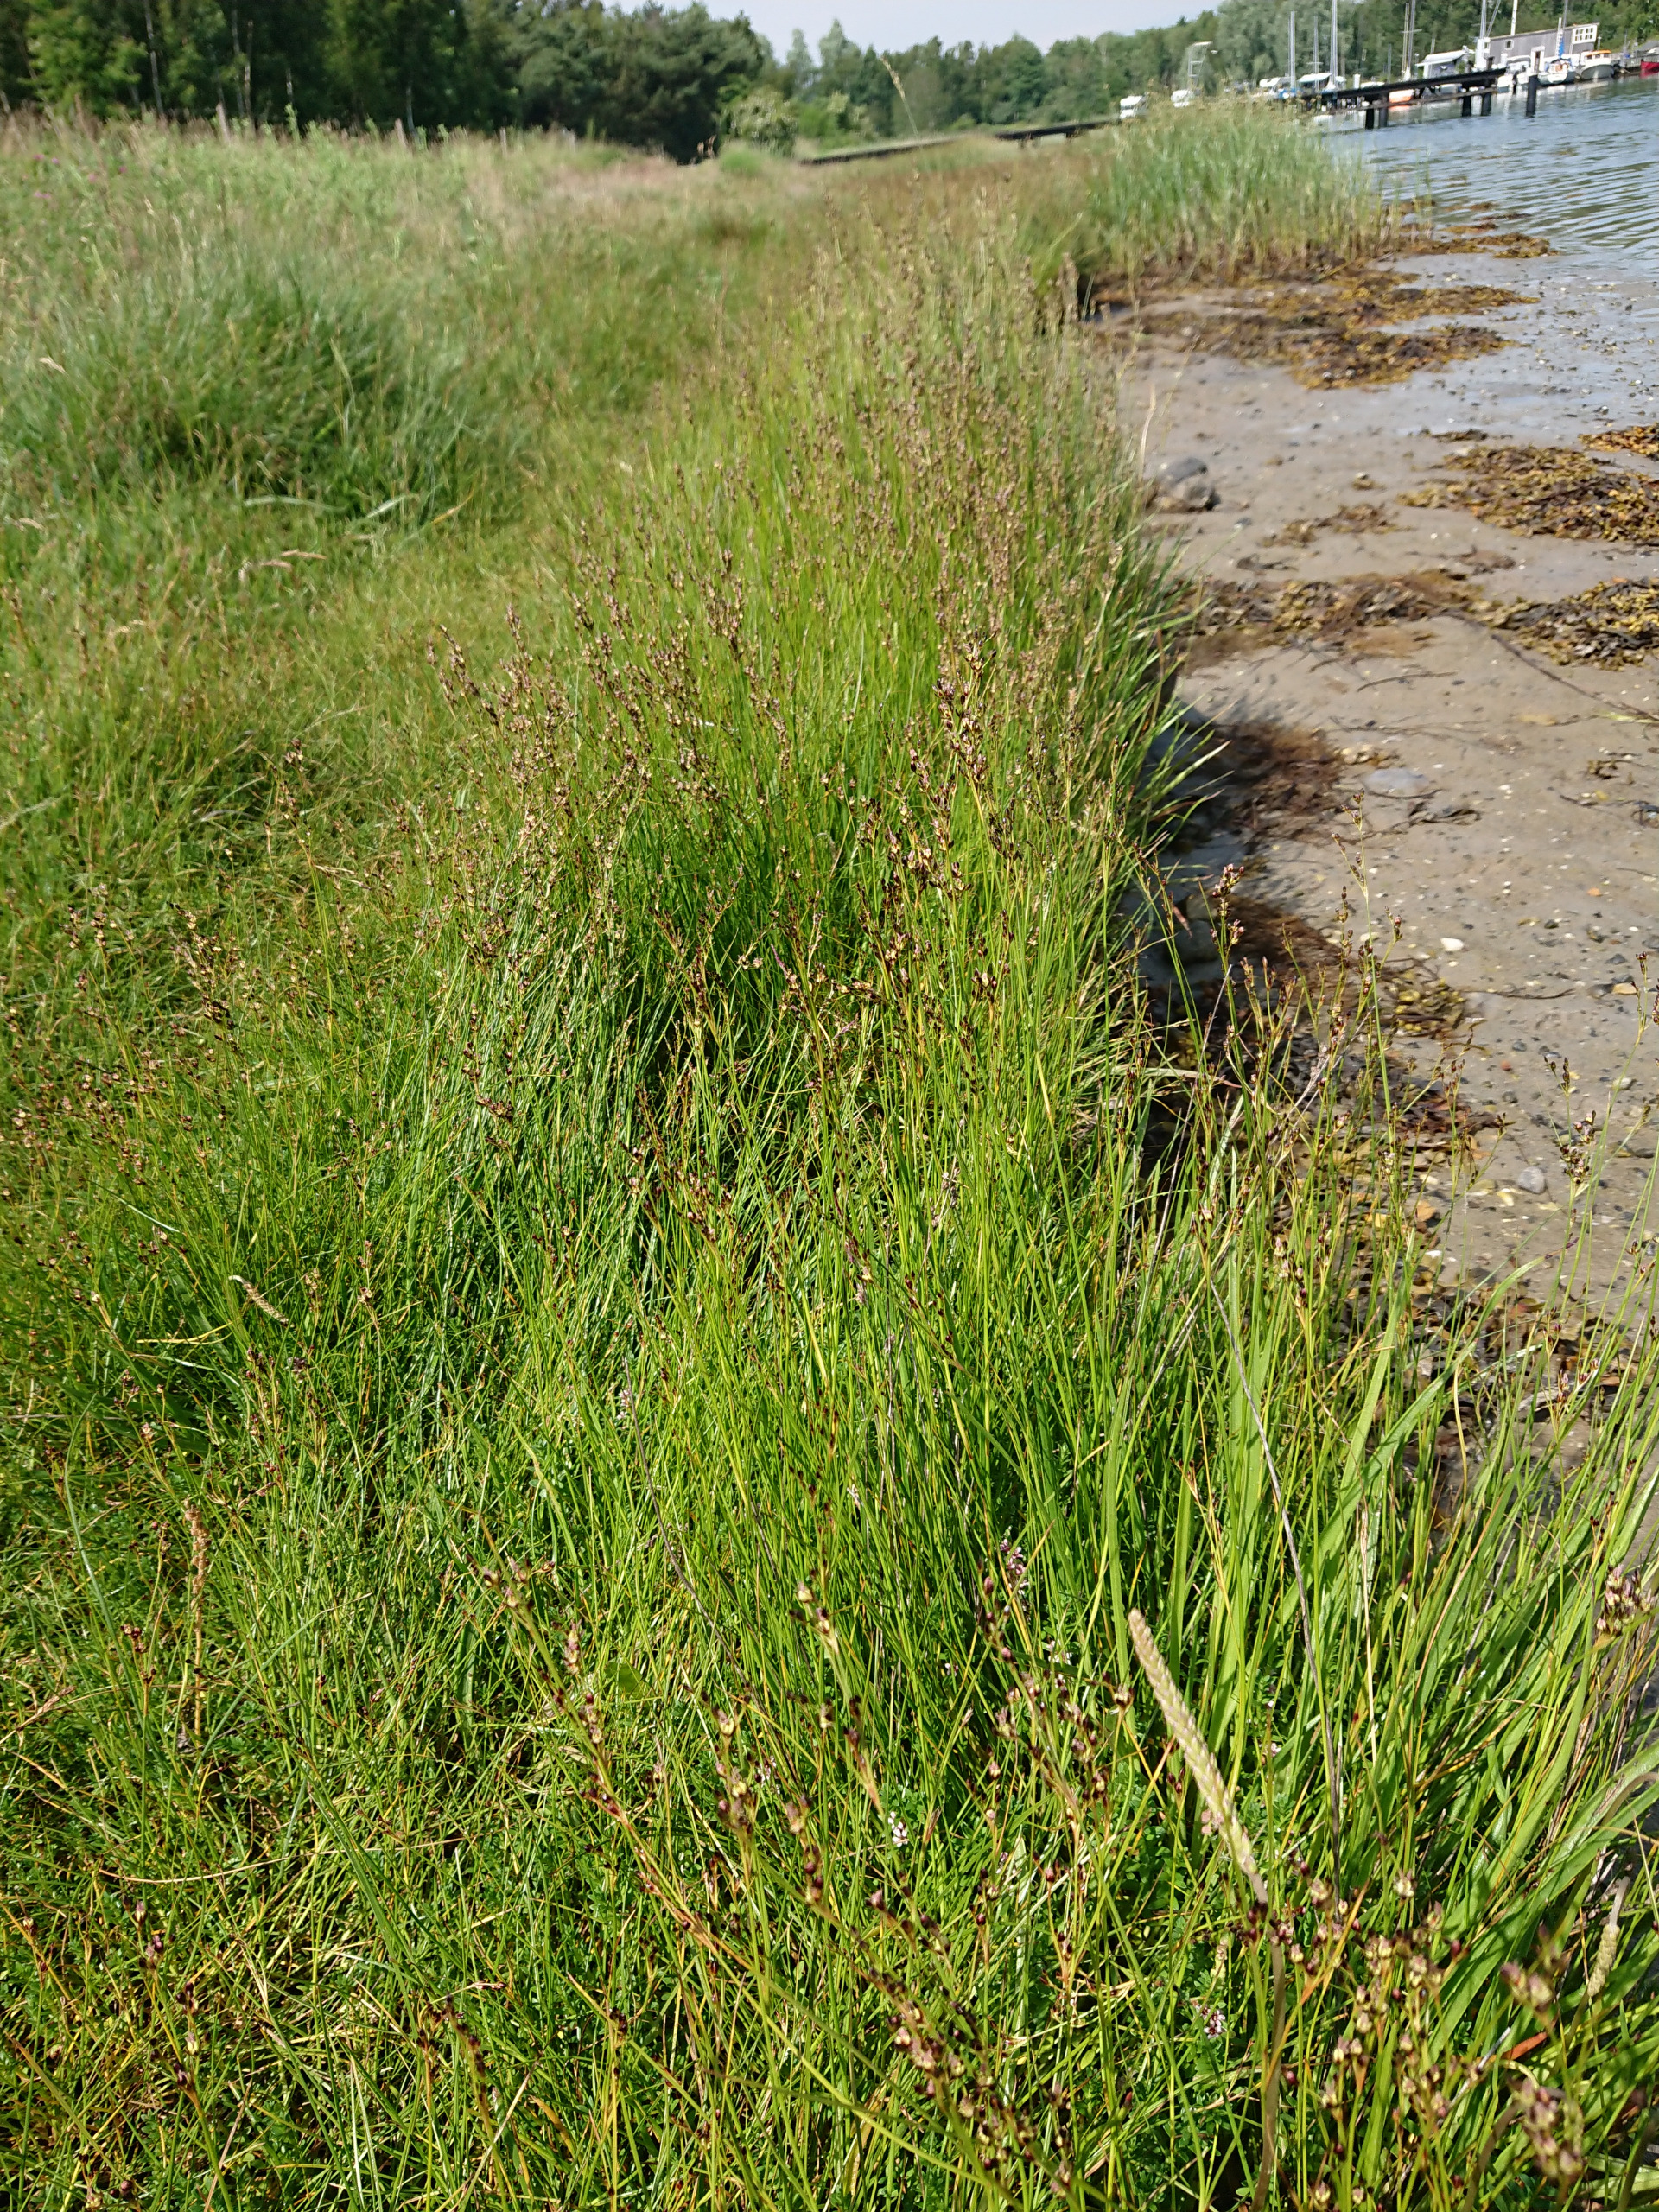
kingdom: Plantae
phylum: Tracheophyta
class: Liliopsida
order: Poales
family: Juncaceae
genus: Juncus
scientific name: Juncus gerardi
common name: Harril
